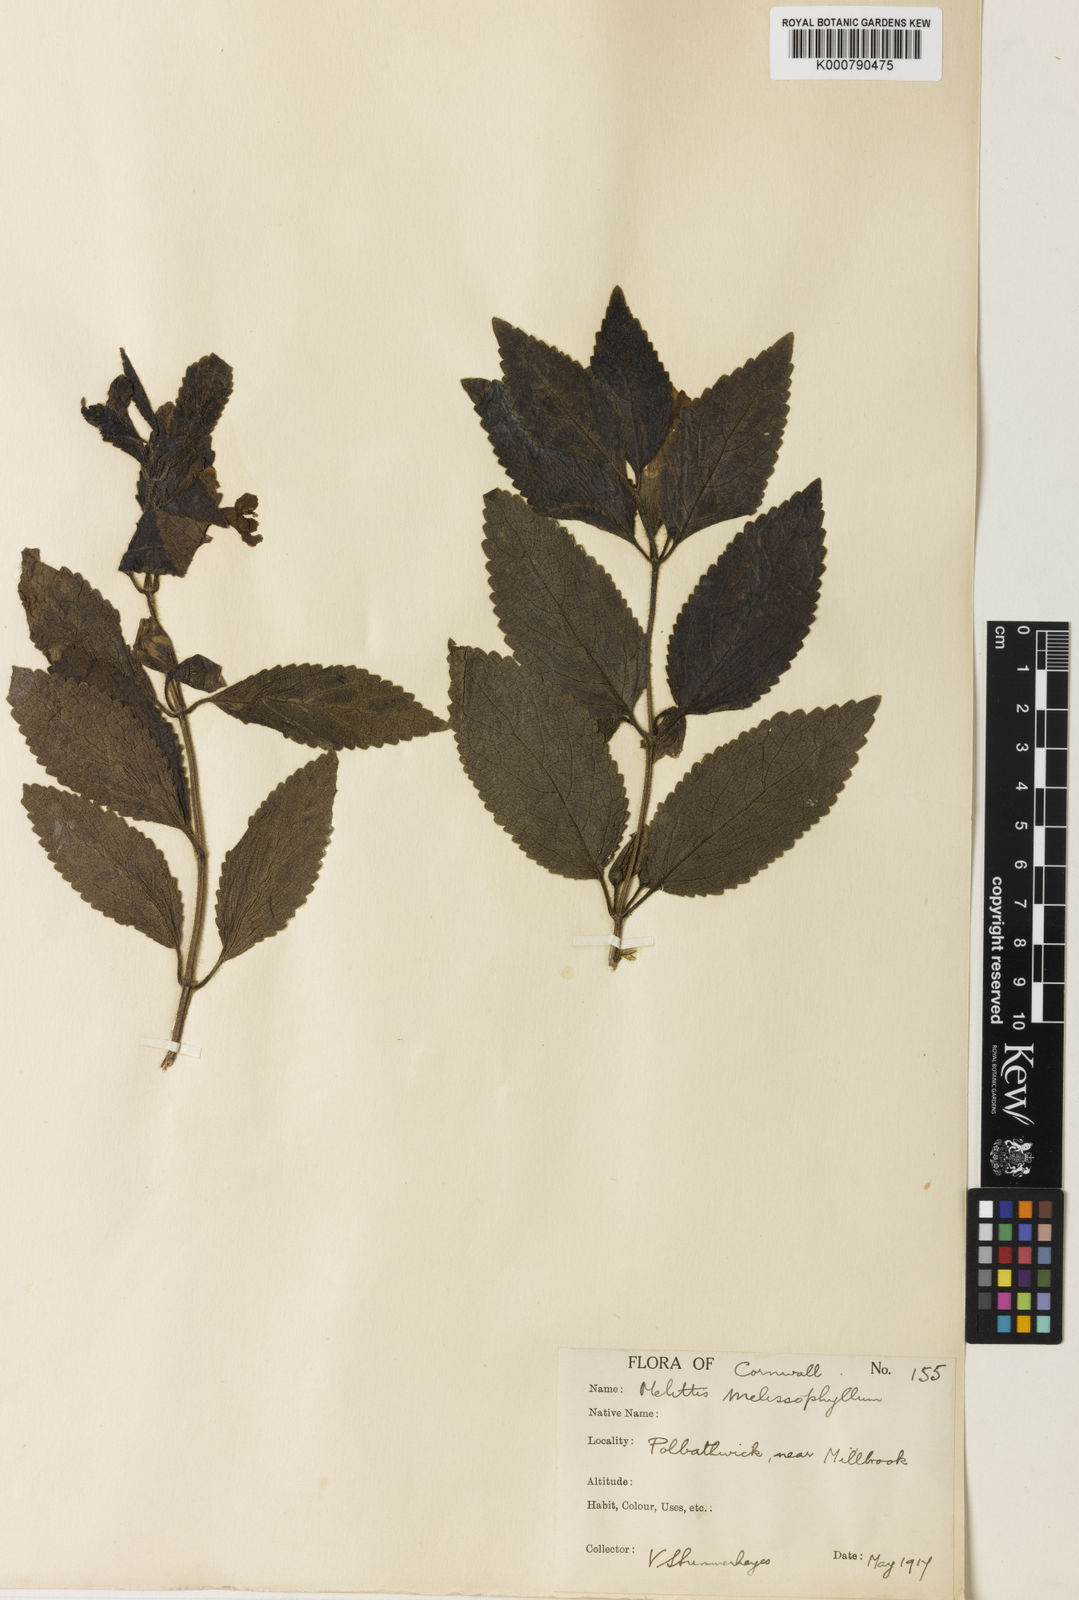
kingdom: Plantae
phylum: Tracheophyta
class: Magnoliopsida
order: Lamiales
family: Lamiaceae
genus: Melittis
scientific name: Melittis melissophyllum
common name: Bastard balm
